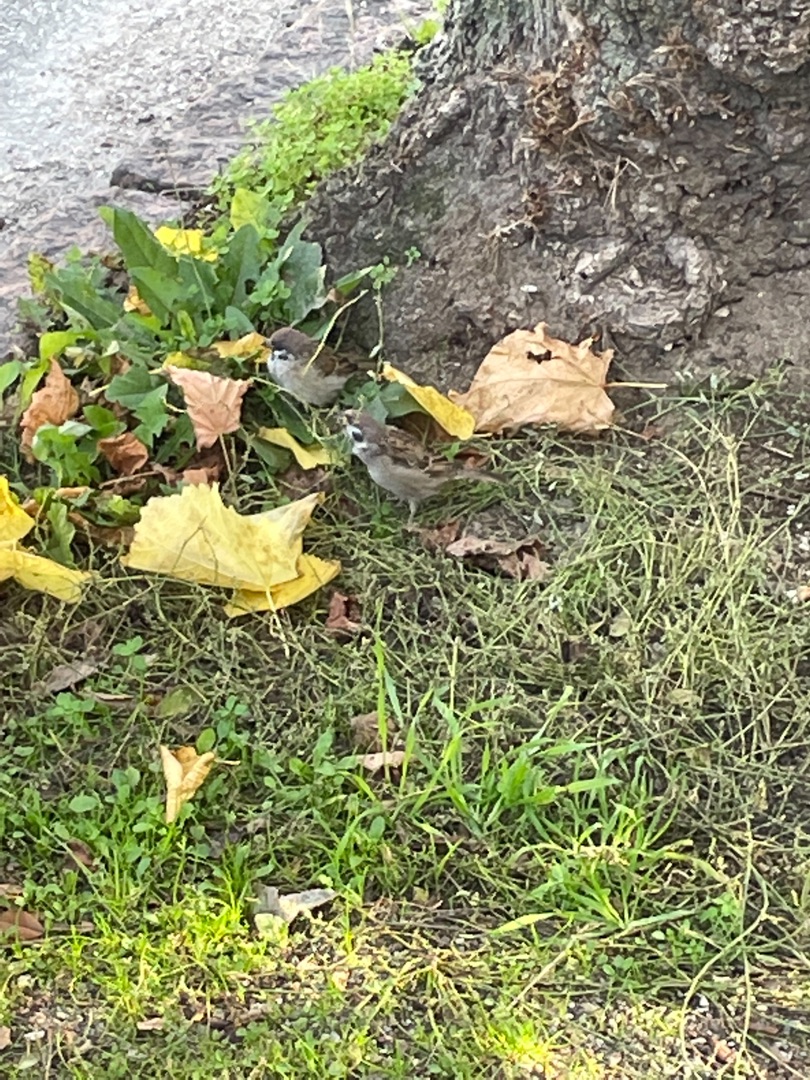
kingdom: Animalia
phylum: Chordata
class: Aves
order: Passeriformes
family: Passeridae
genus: Passer
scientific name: Passer montanus
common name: Skovspurv
